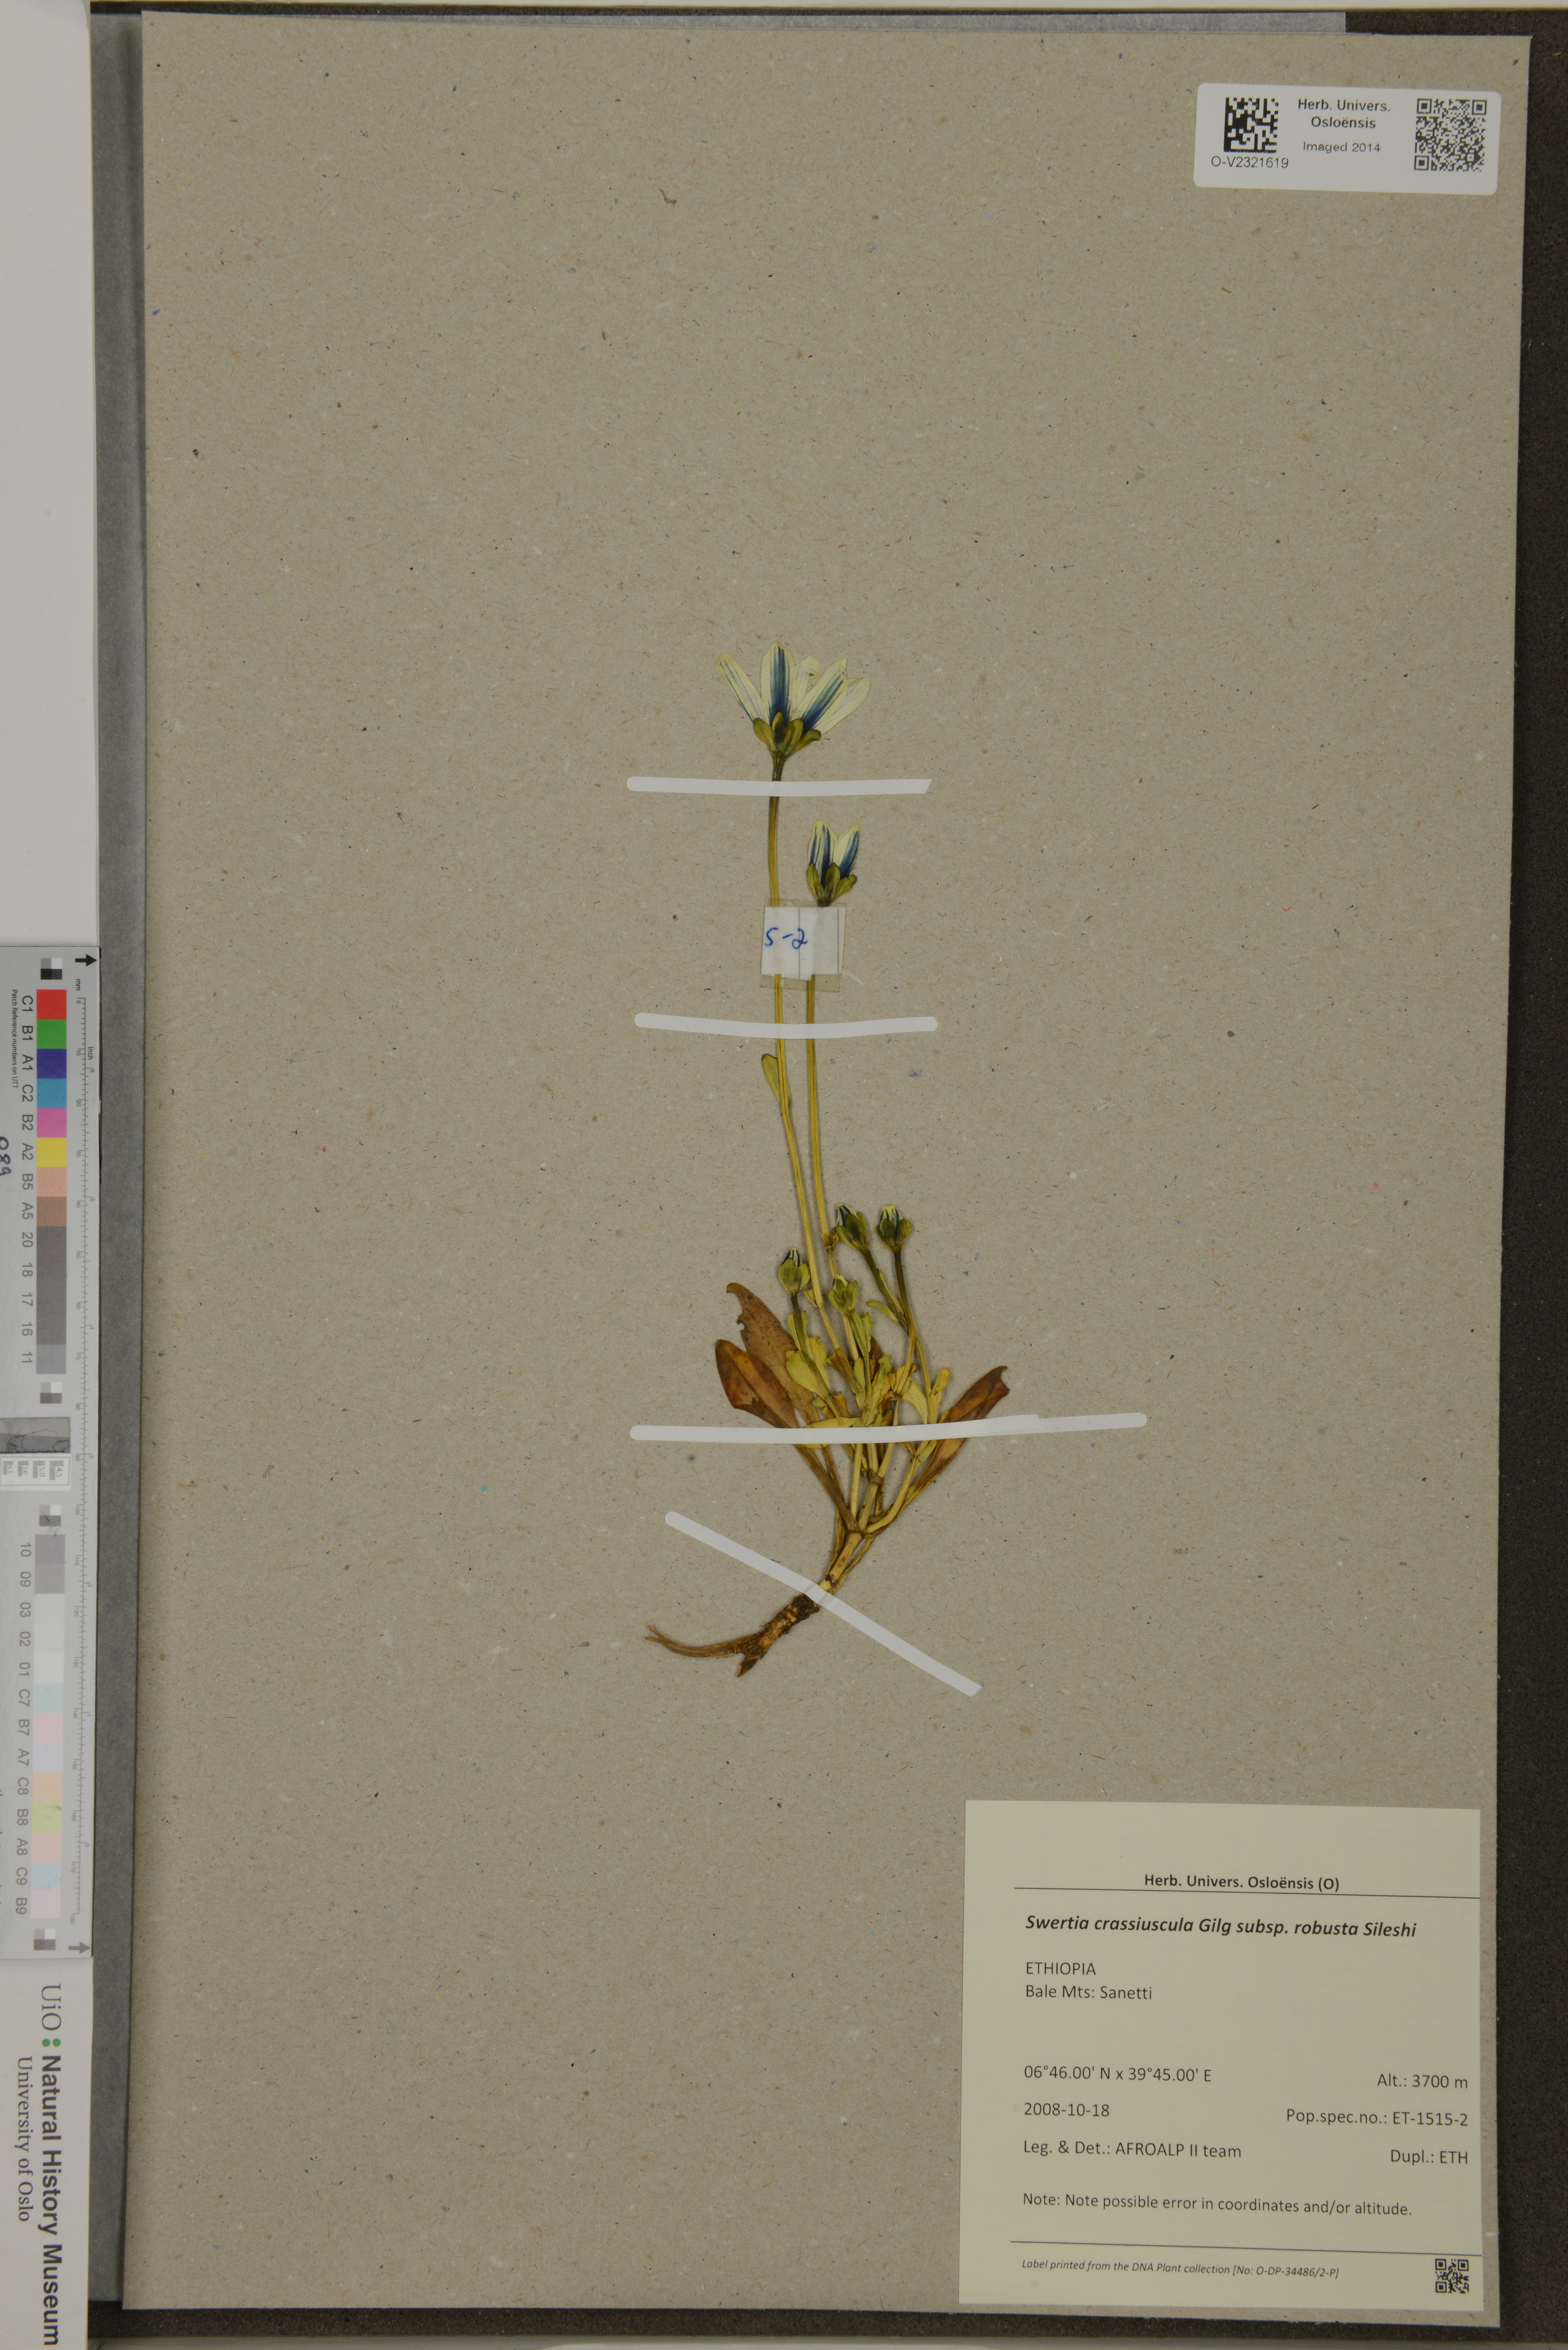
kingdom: Plantae
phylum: Tracheophyta
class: Magnoliopsida
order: Gentianales
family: Gentianaceae
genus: Swertia
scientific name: Swertia crassiuscula
